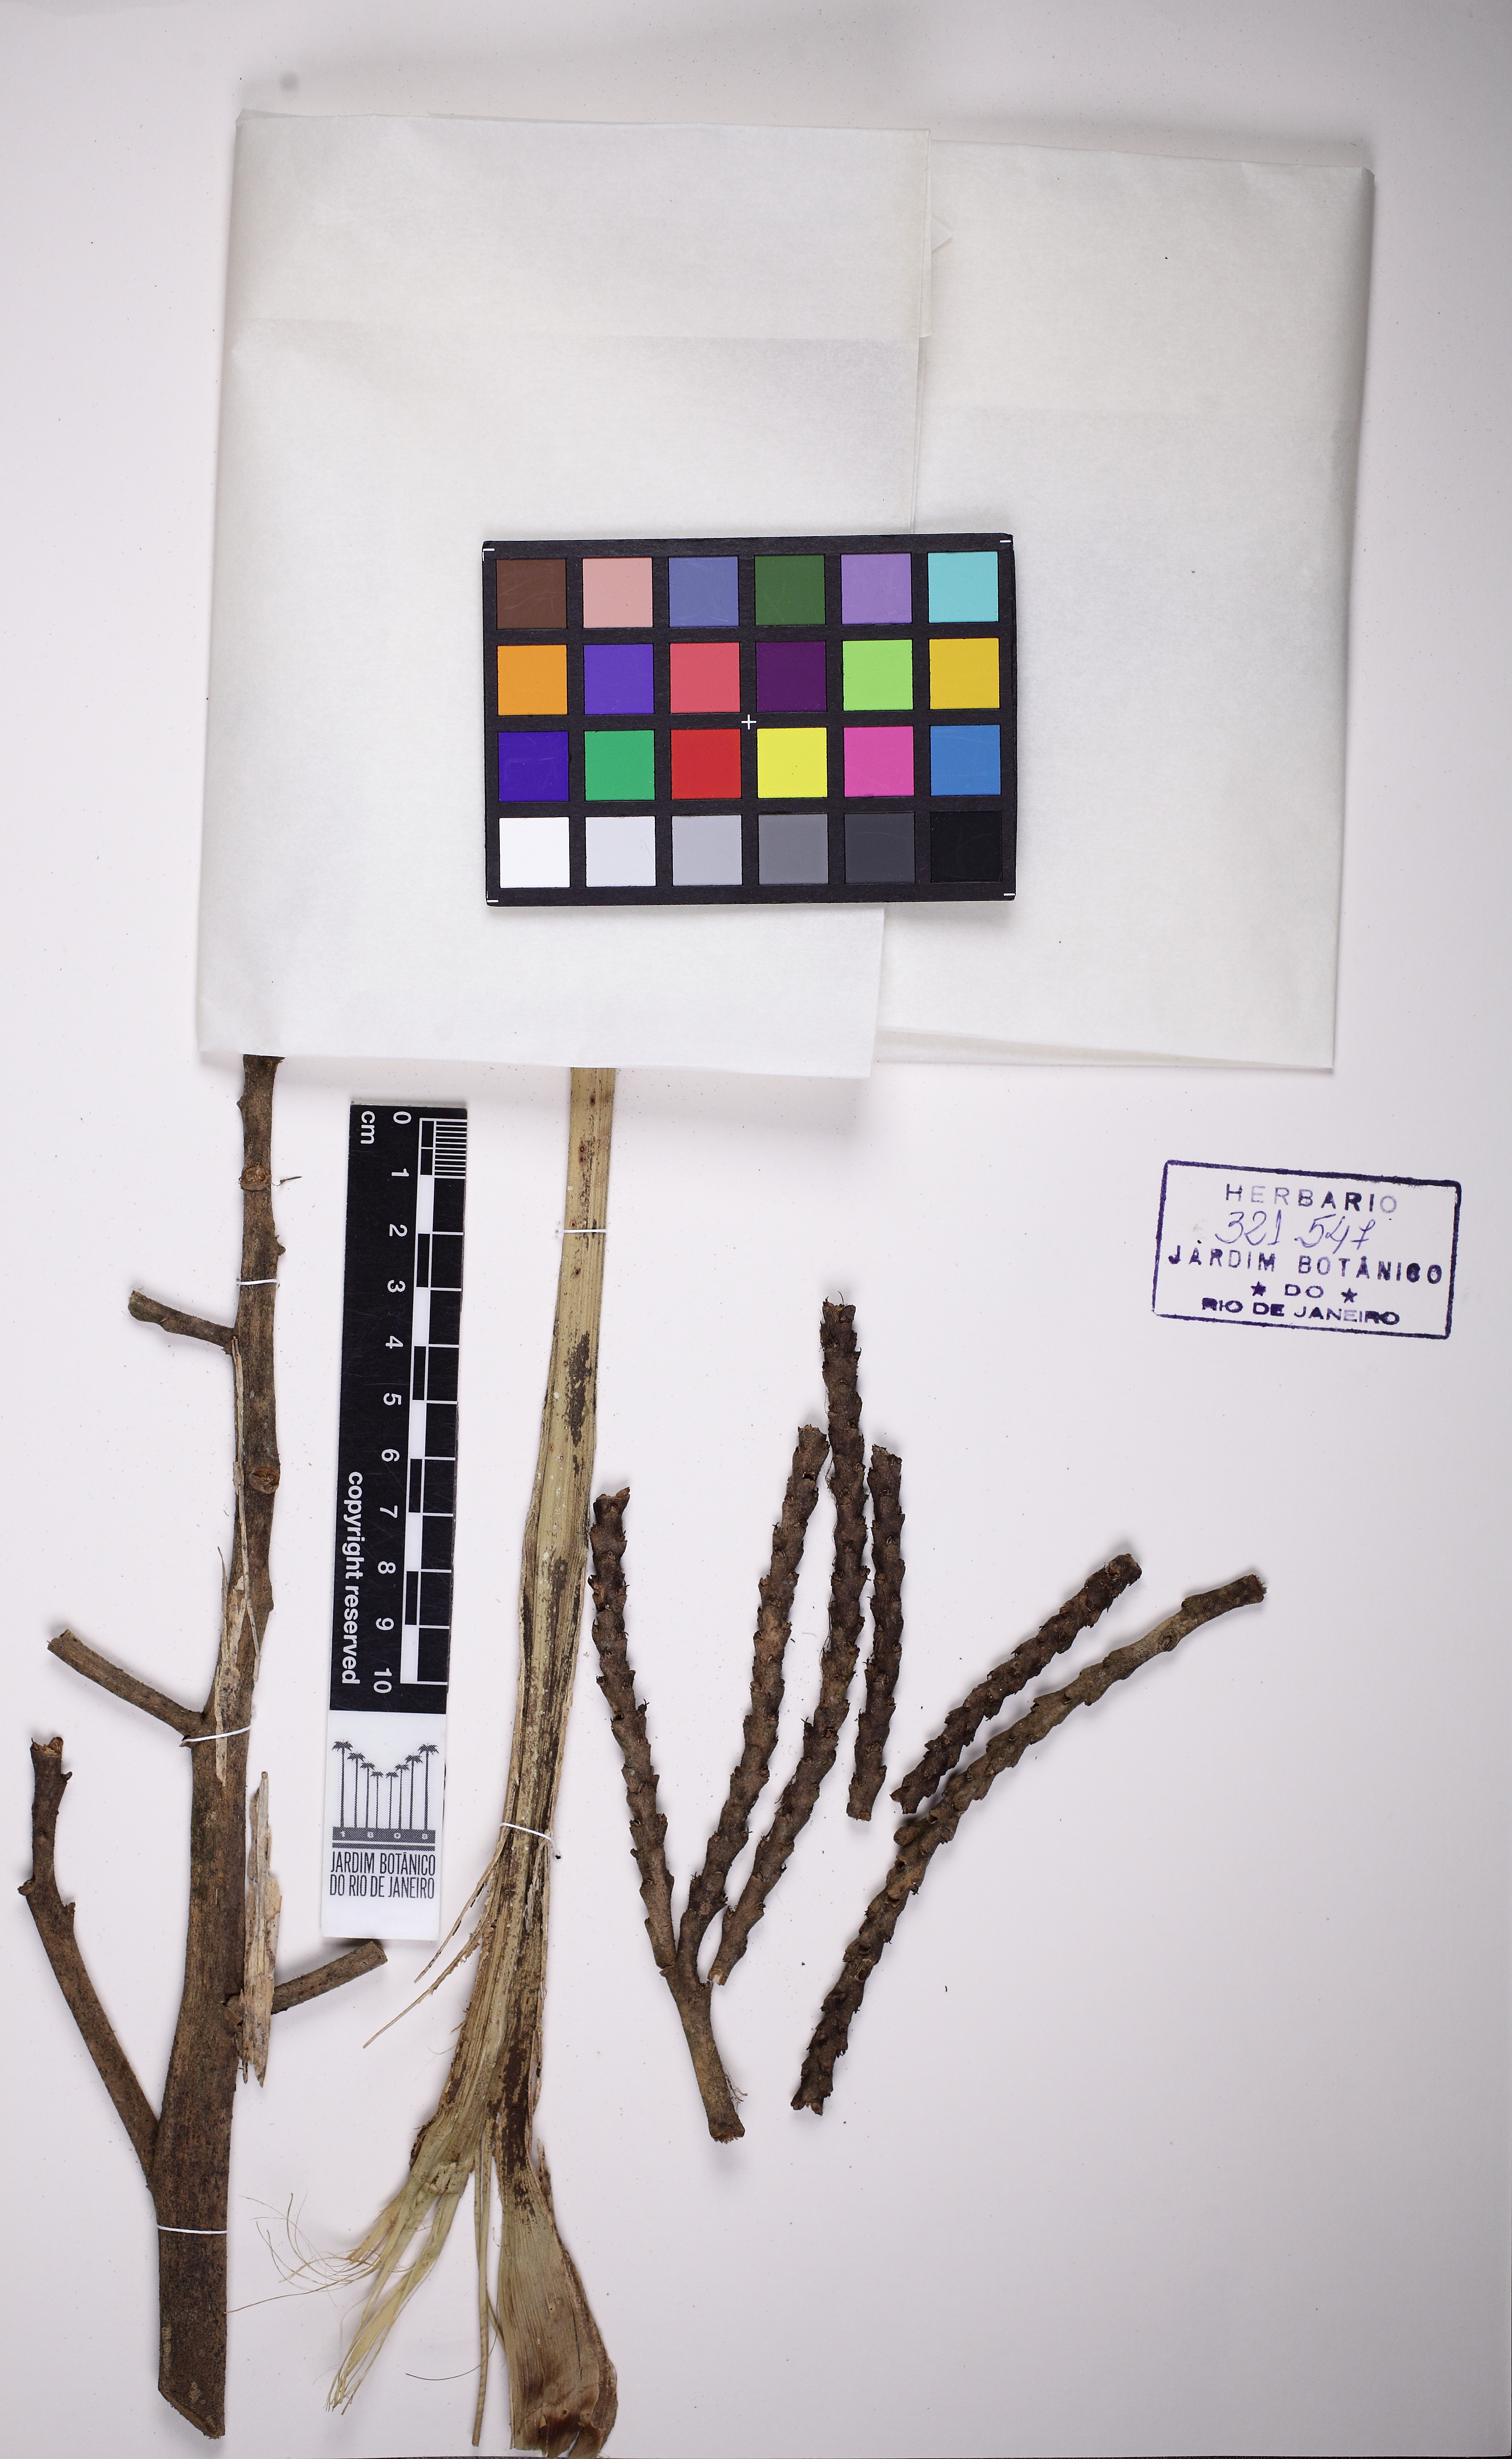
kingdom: Plantae
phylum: Tracheophyta
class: Liliopsida
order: Arecales
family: Arecaceae
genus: Geonoma
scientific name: Geonoma pohliana
